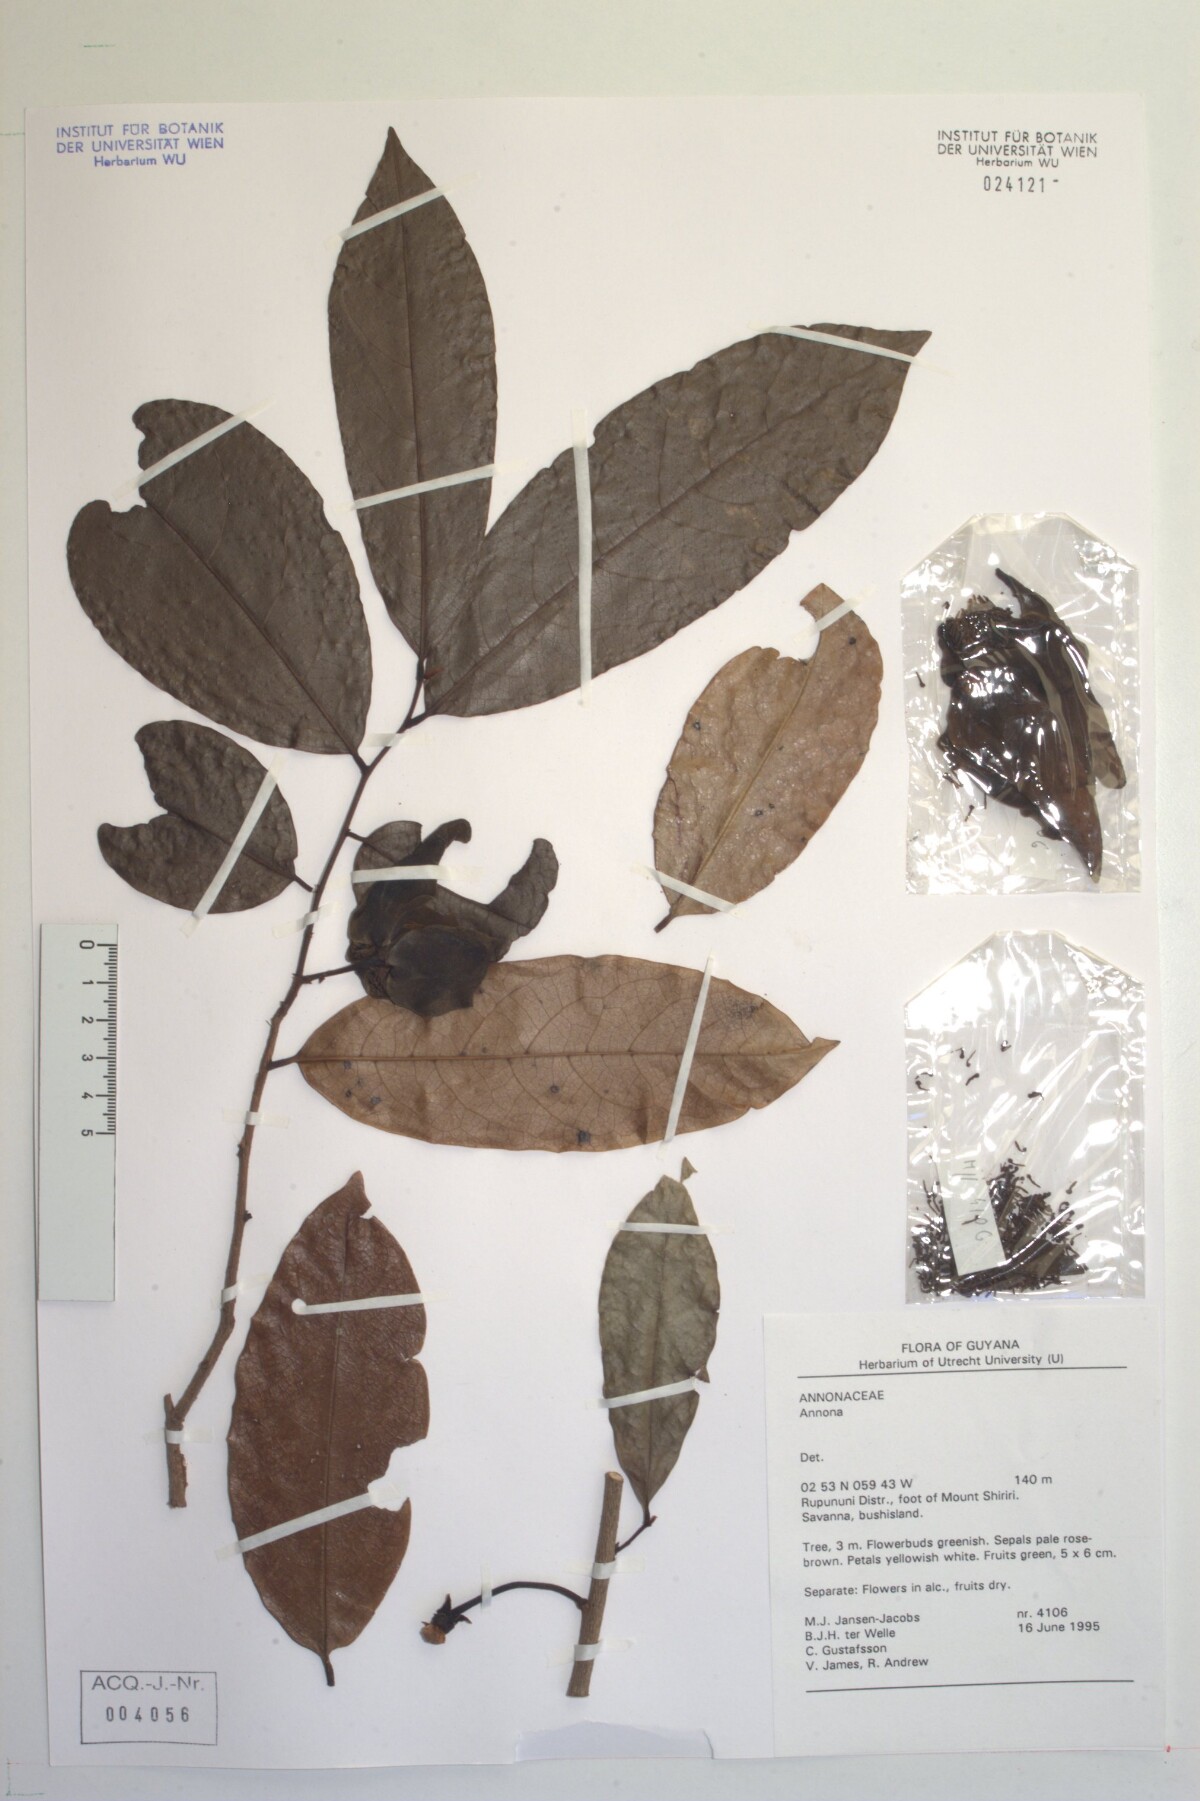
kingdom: Plantae
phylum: Tracheophyta
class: Magnoliopsida
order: Magnoliales
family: Annonaceae
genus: Annona
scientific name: Annona
